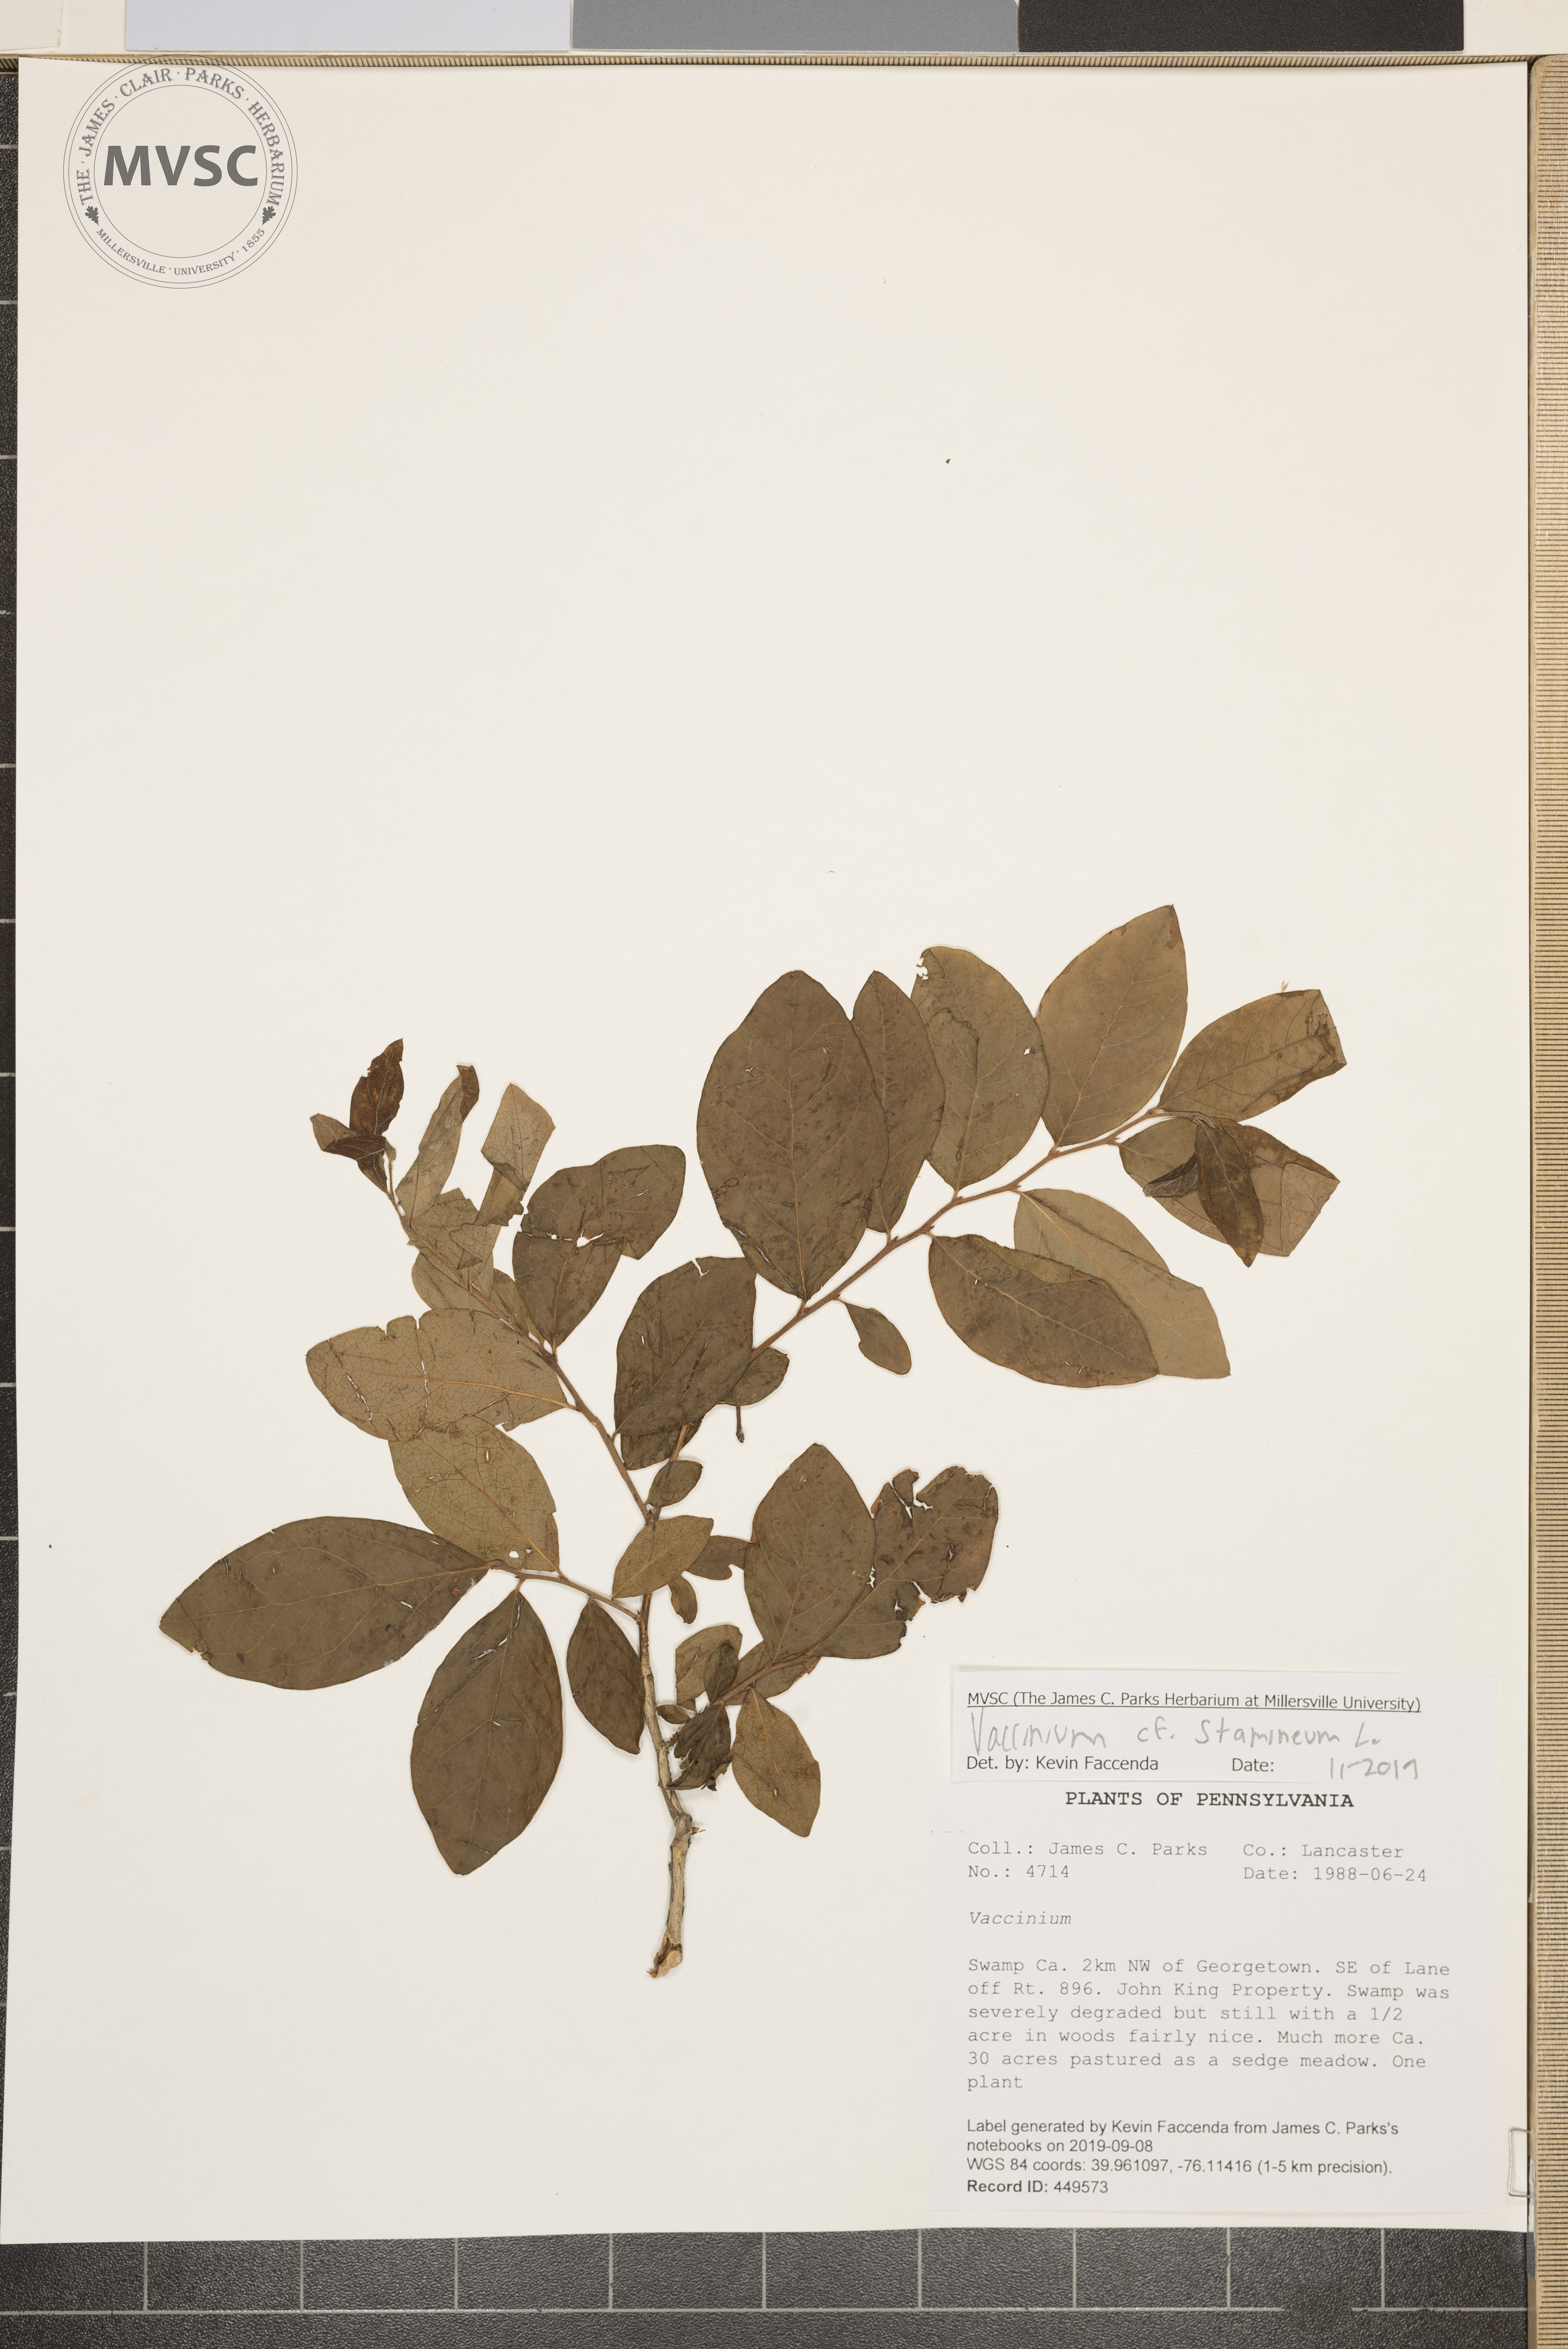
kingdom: Plantae
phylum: Tracheophyta
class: Magnoliopsida
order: Ericales
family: Ericaceae
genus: Vaccinium
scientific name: Vaccinium stramineum
